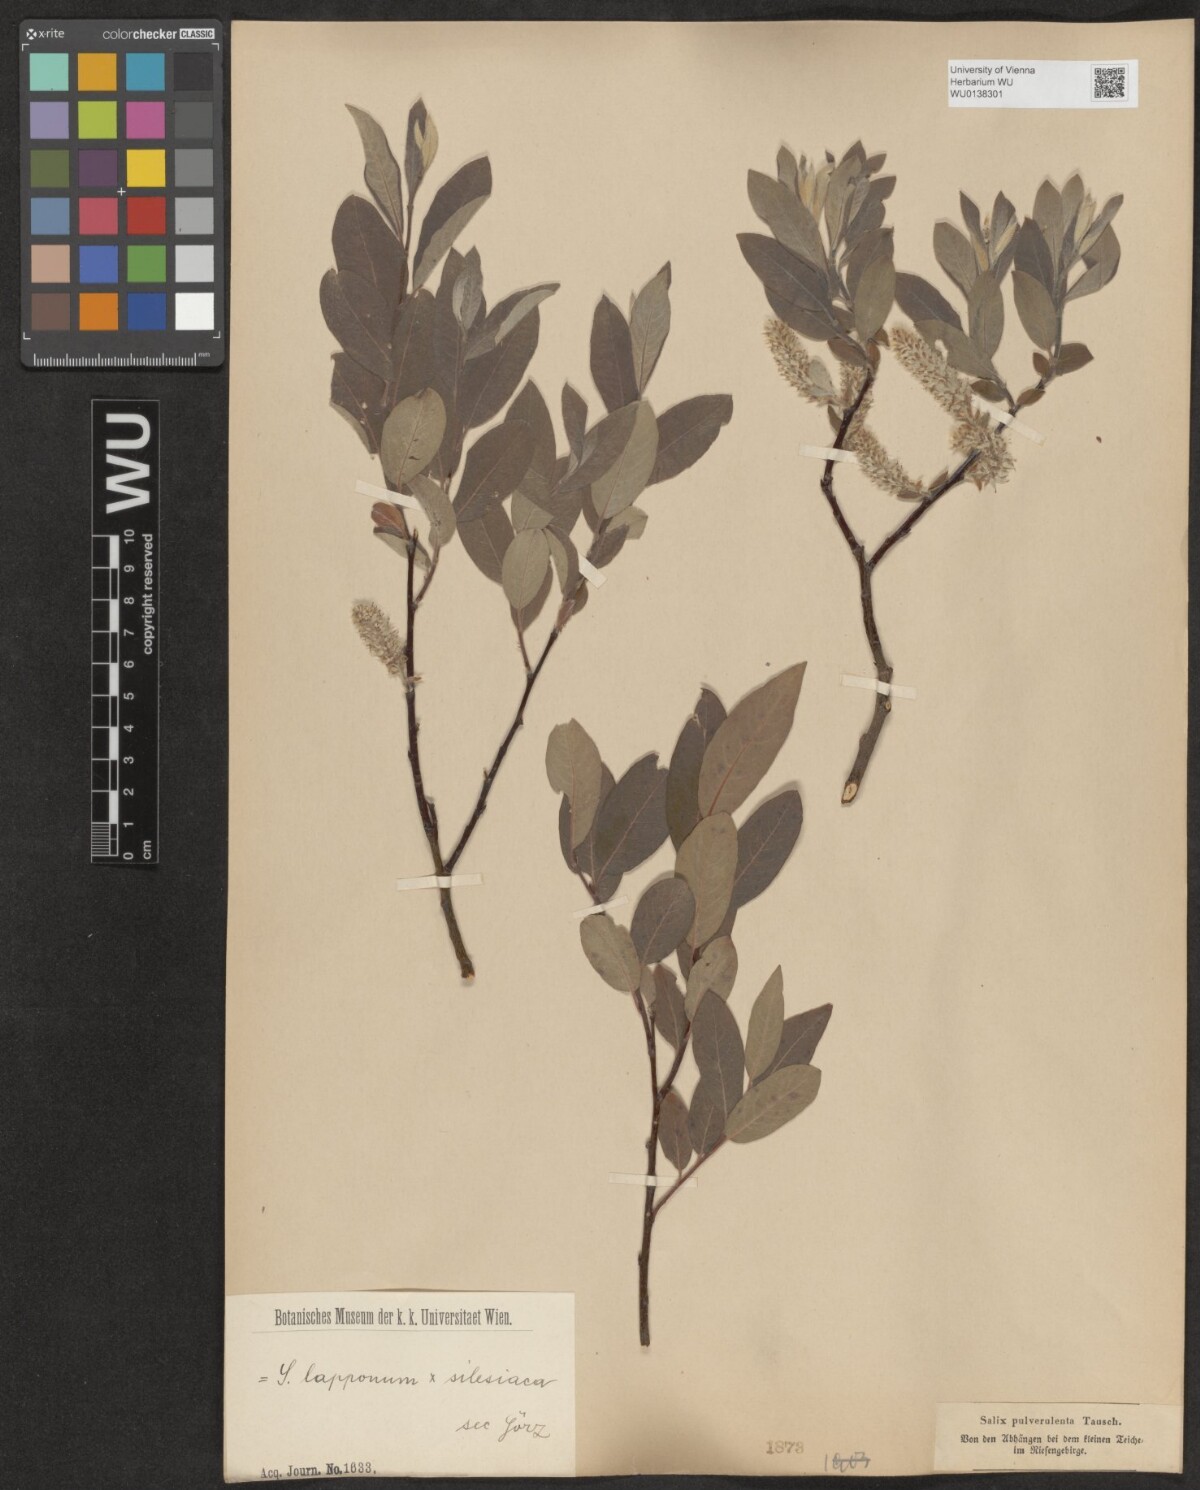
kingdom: Plantae
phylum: Tracheophyta
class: Magnoliopsida
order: Malpighiales
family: Salicaceae
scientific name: Salicaceae
